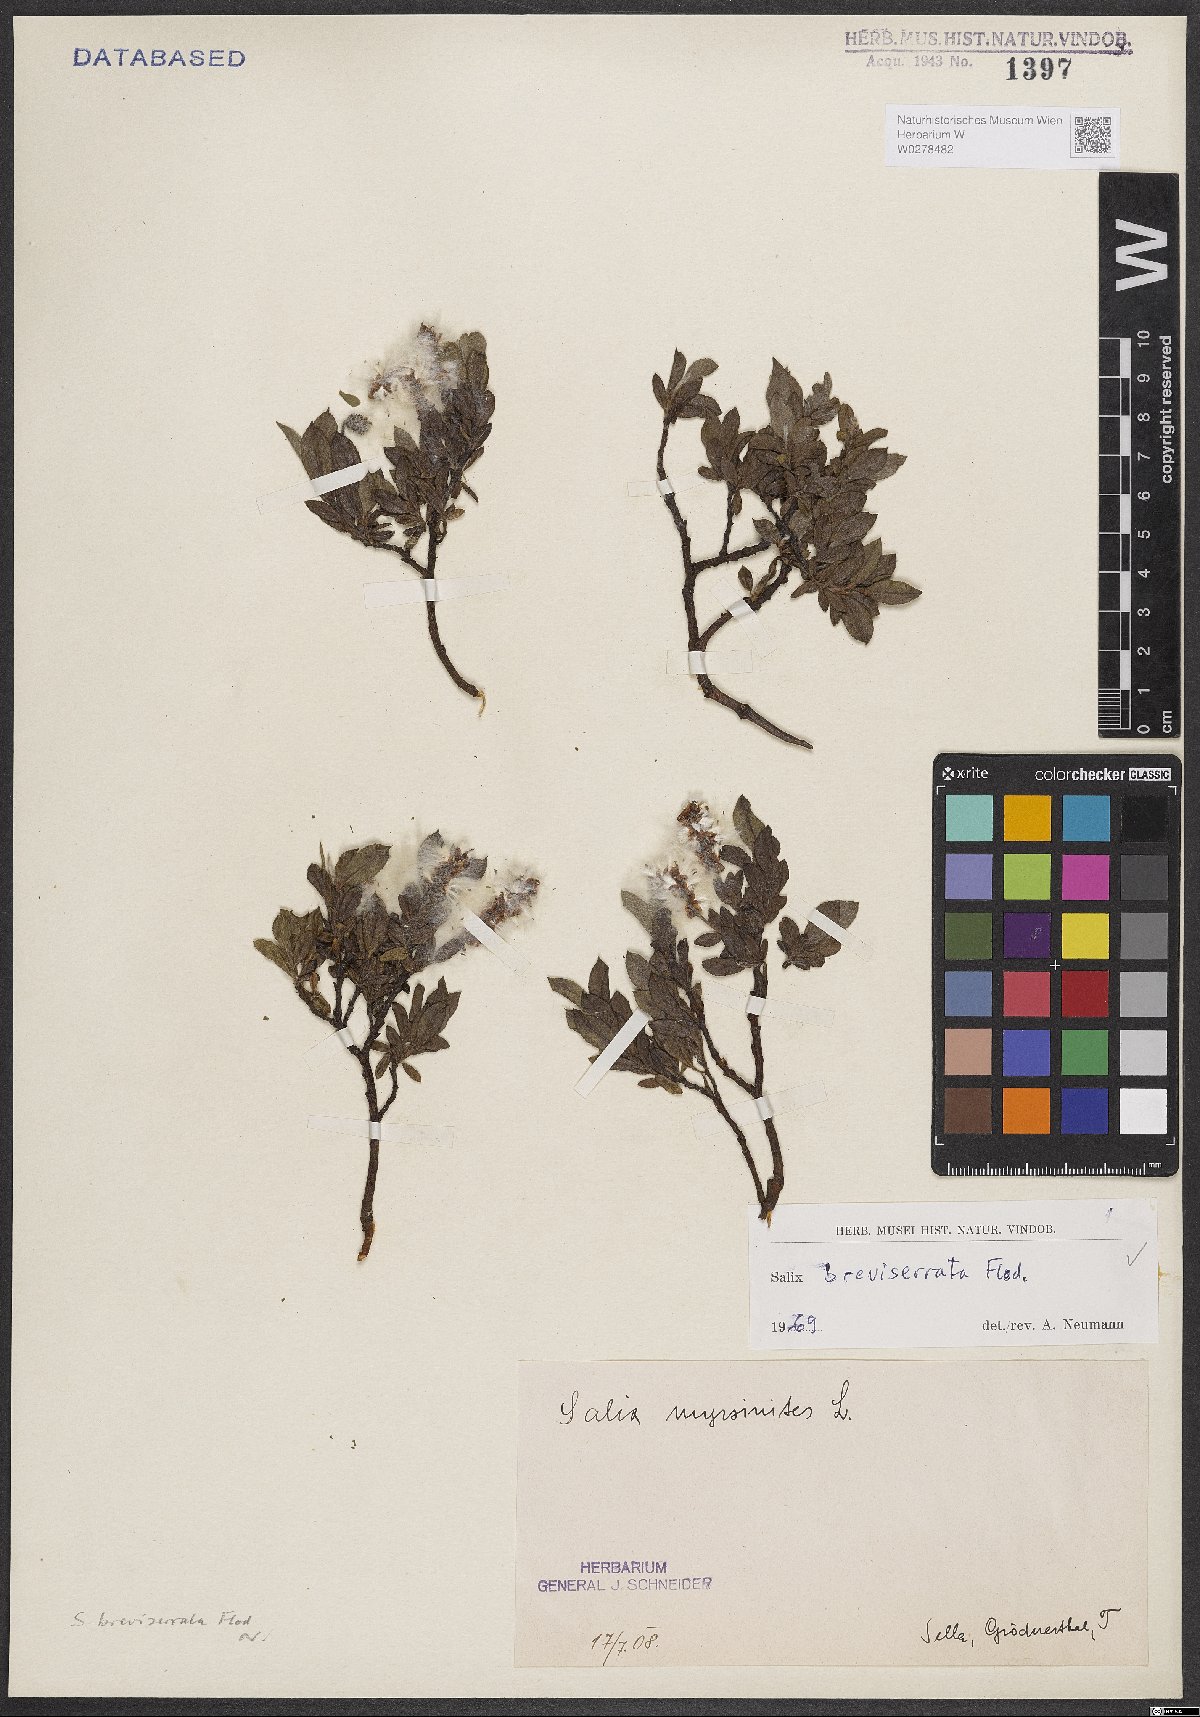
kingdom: Plantae
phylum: Tracheophyta
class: Magnoliopsida
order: Malpighiales
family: Salicaceae
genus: Salix
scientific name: Salix breviserrata
